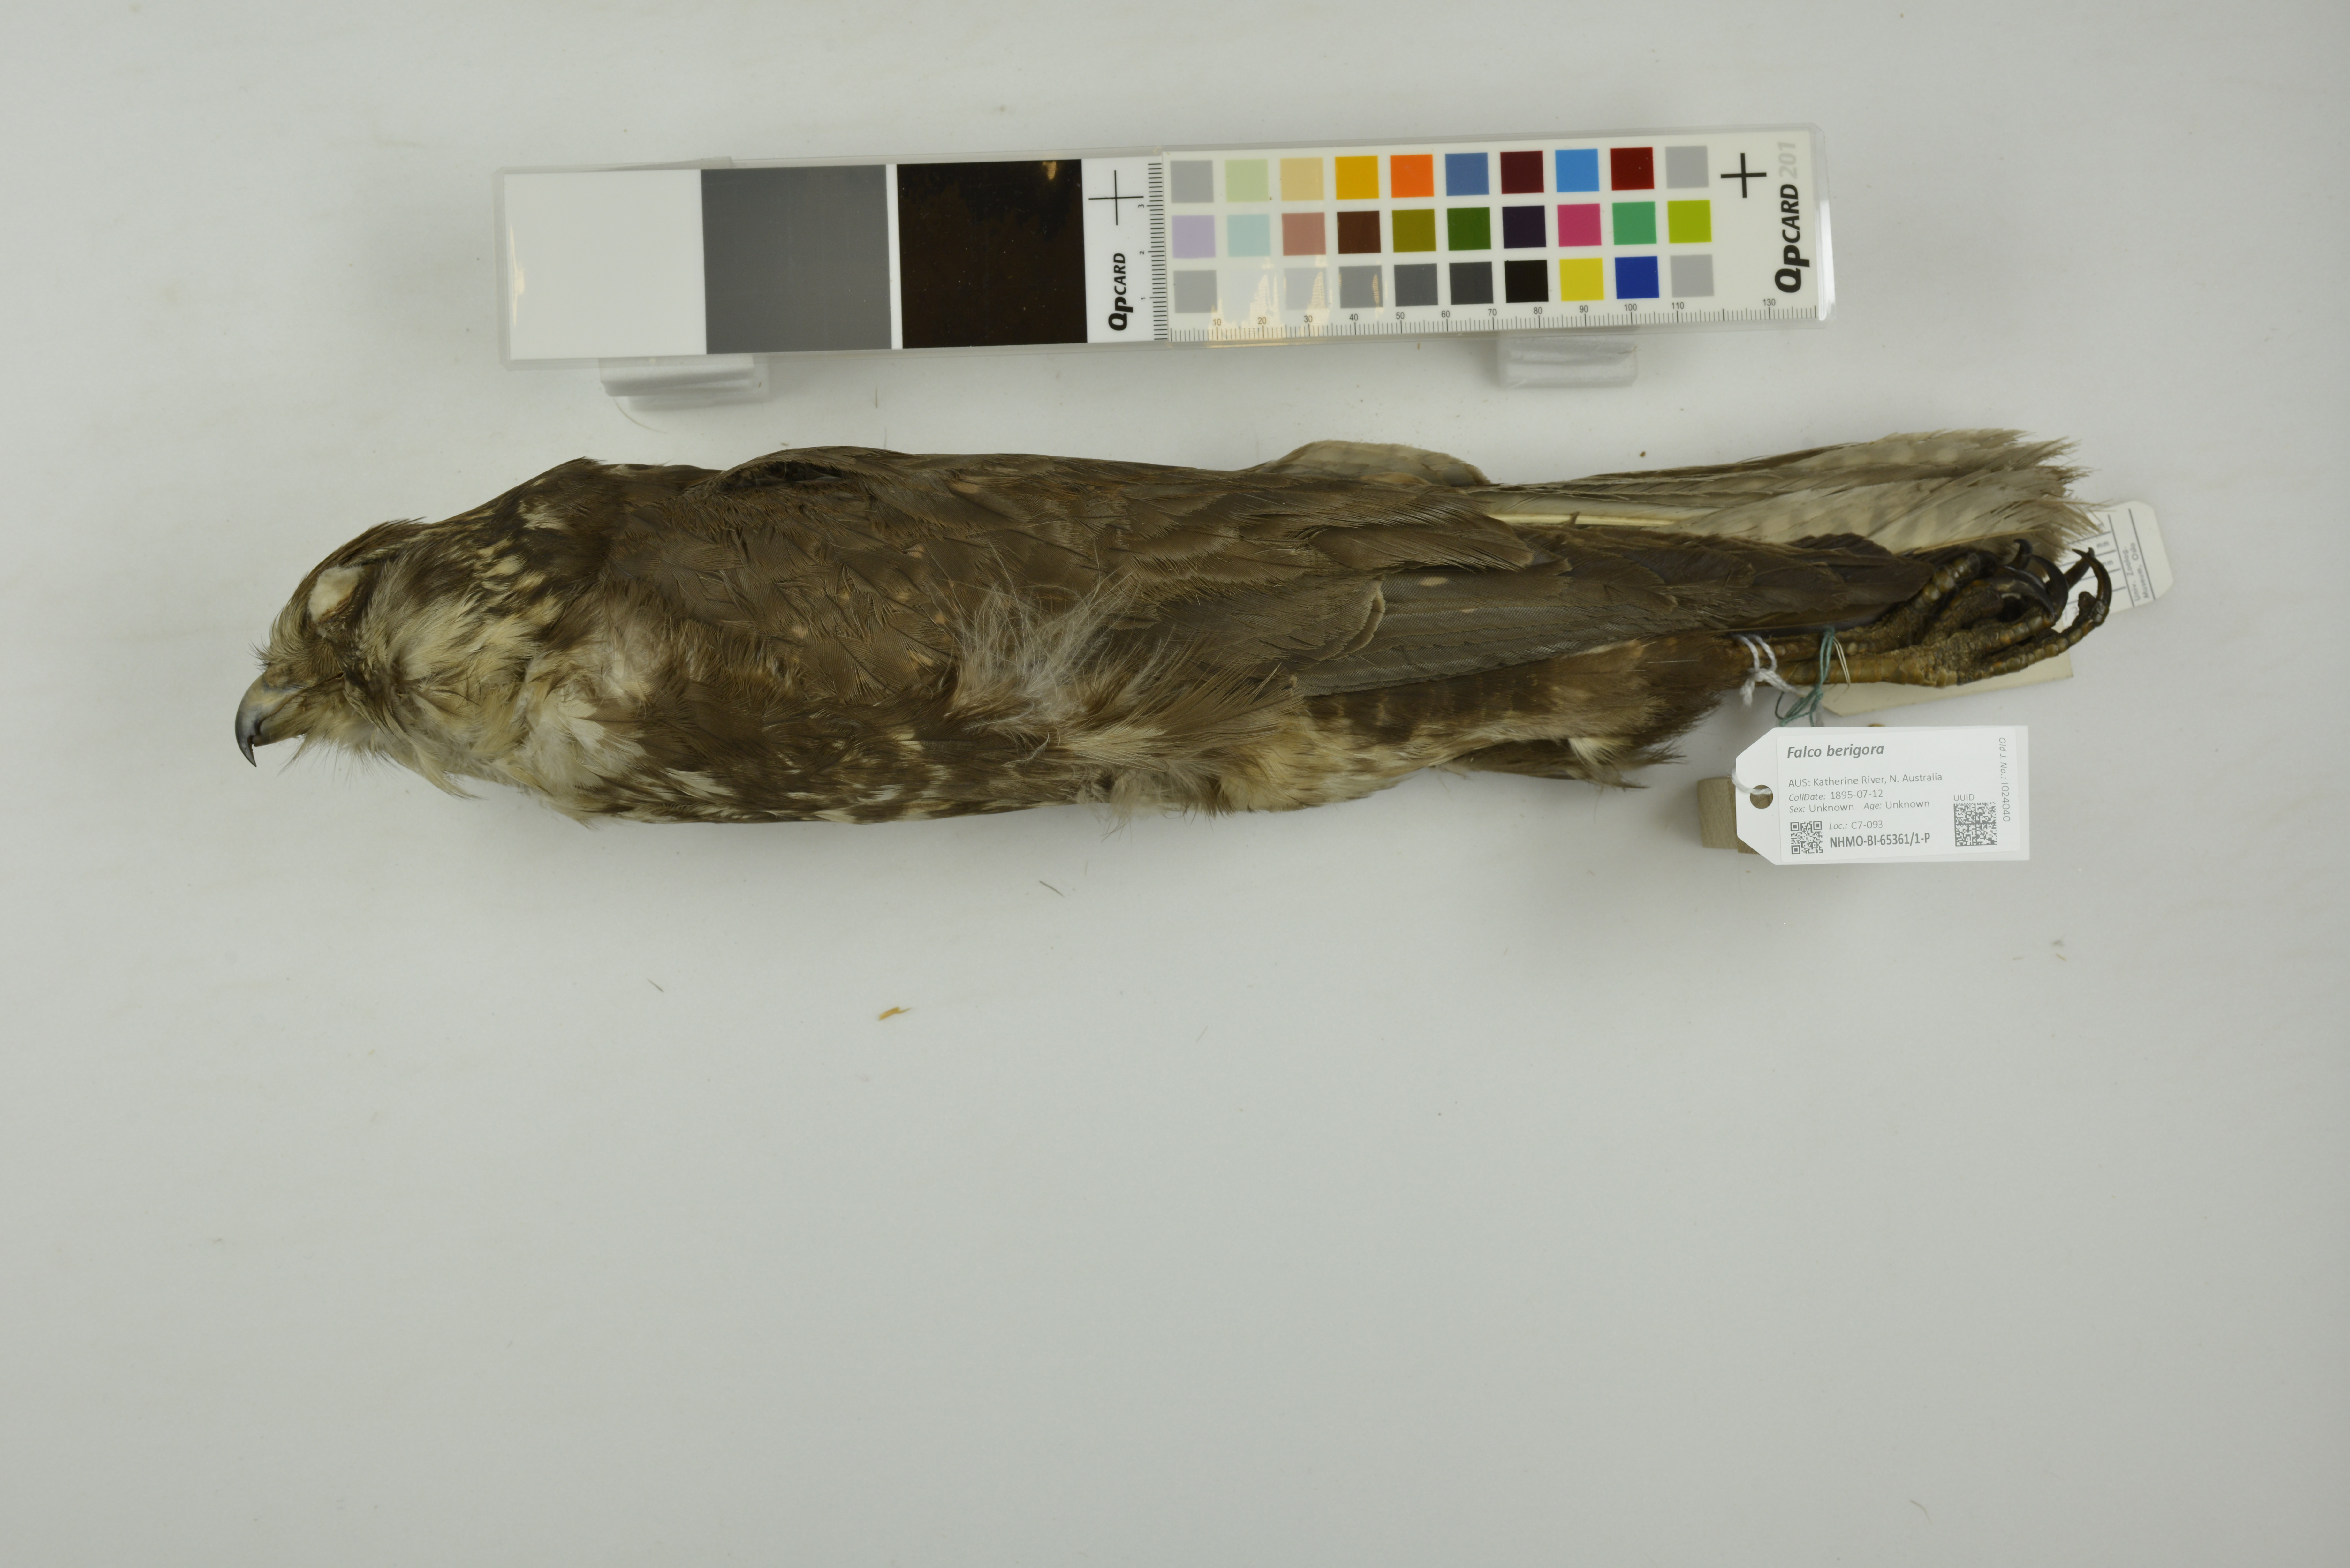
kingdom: Animalia
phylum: Chordata
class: Aves
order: Falconiformes
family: Falconidae
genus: Falco
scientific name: Falco berigora
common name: Brown falcon
